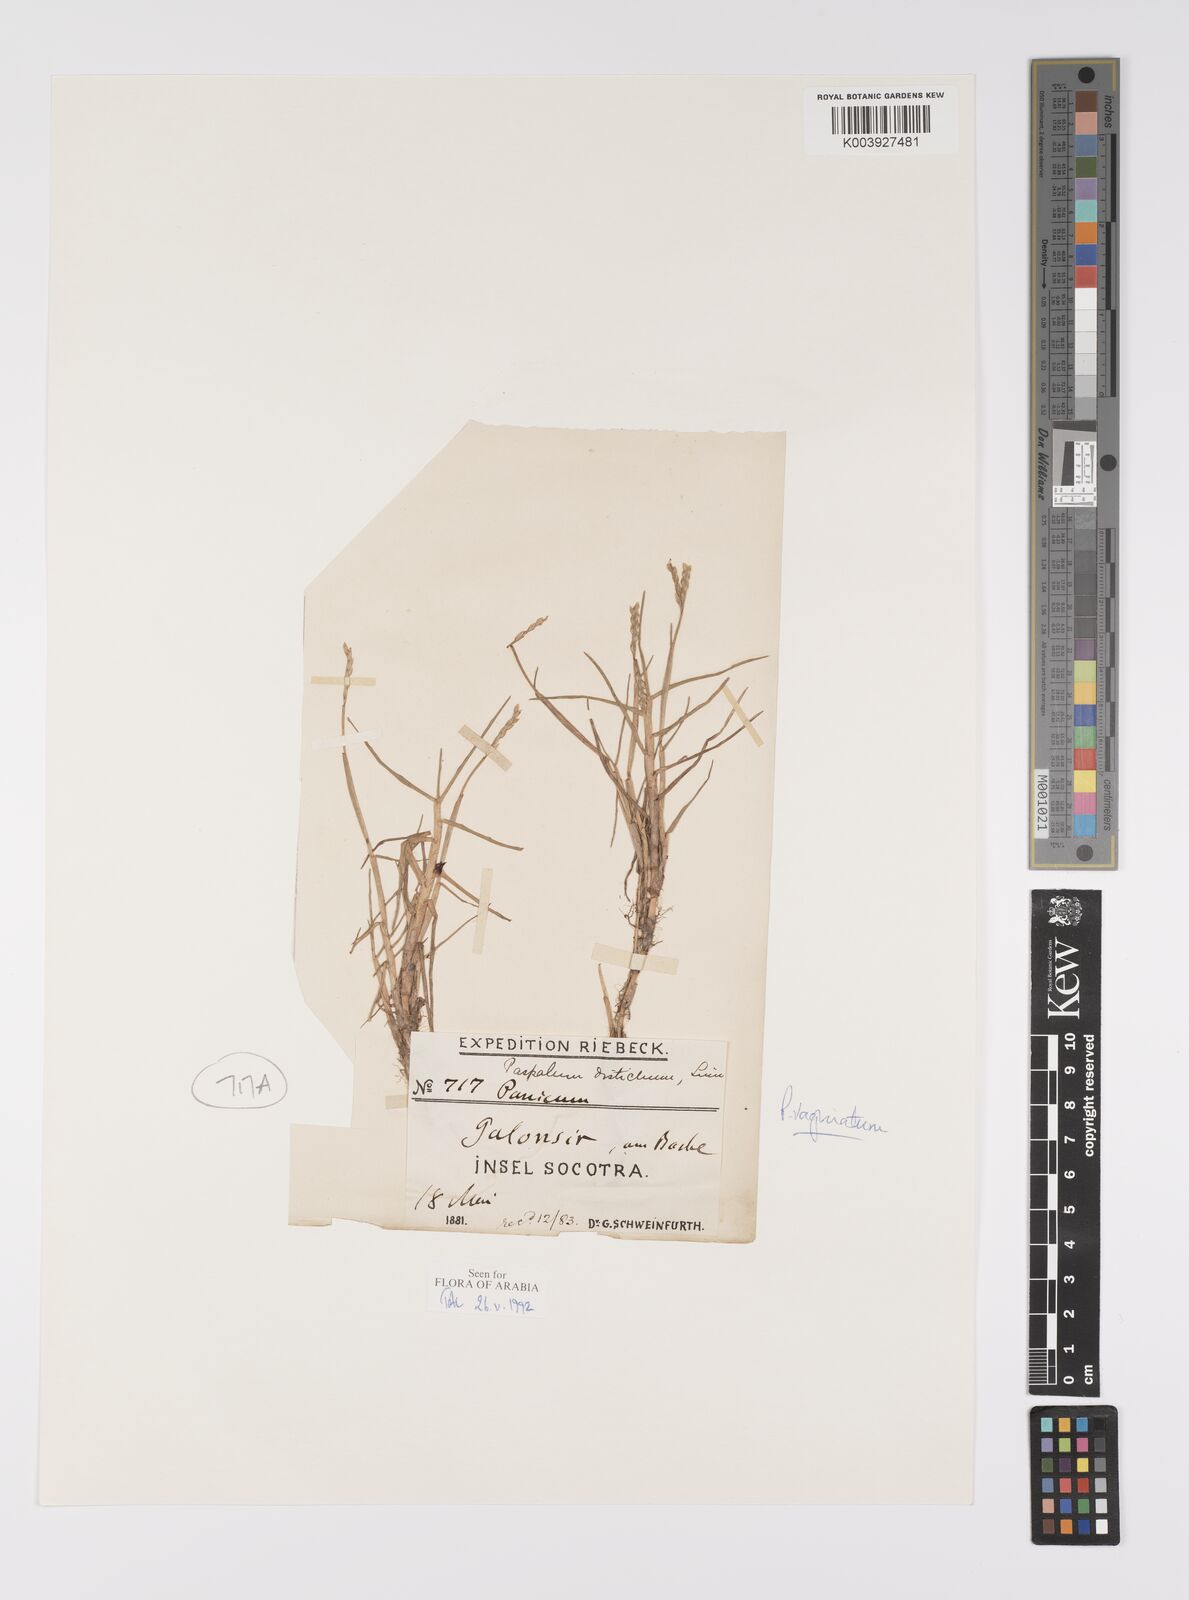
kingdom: Plantae
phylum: Tracheophyta
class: Liliopsida
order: Poales
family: Poaceae
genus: Paspalum
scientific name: Paspalum vaginatum
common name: Seashore paspalum
